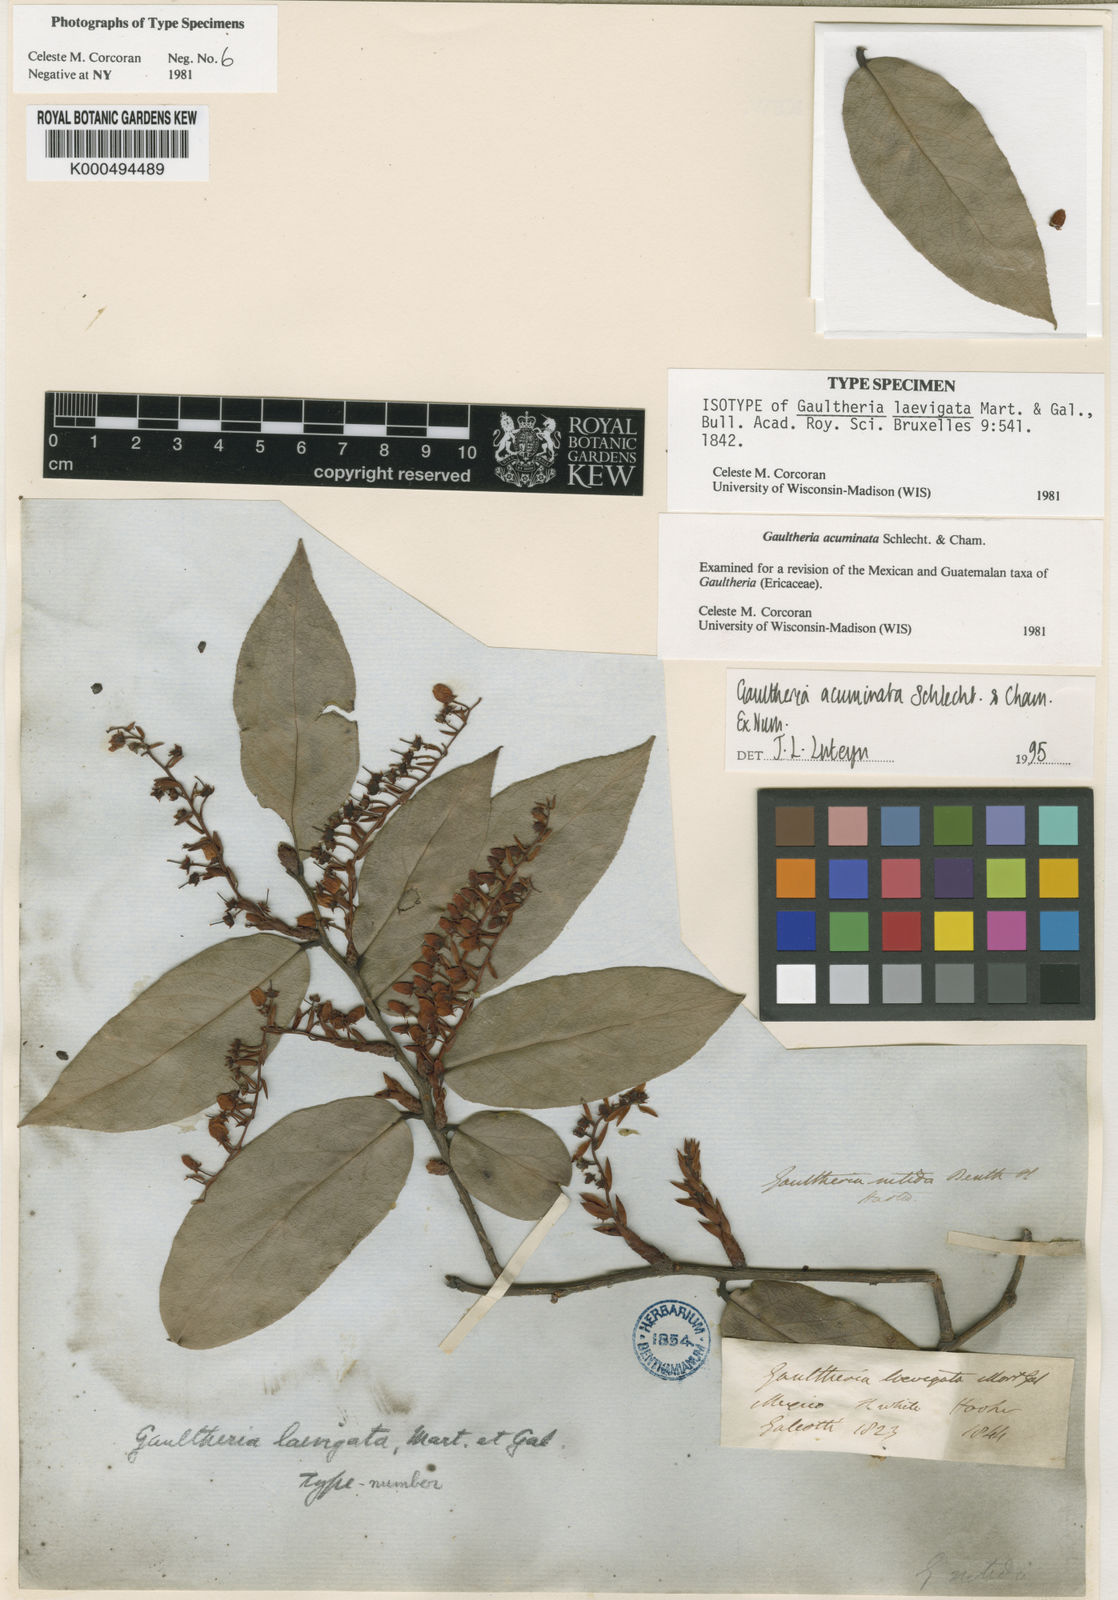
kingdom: Plantae
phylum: Tracheophyta
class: Magnoliopsida
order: Ericales
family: Ericaceae
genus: Gaultheria
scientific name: Gaultheria acuminata
